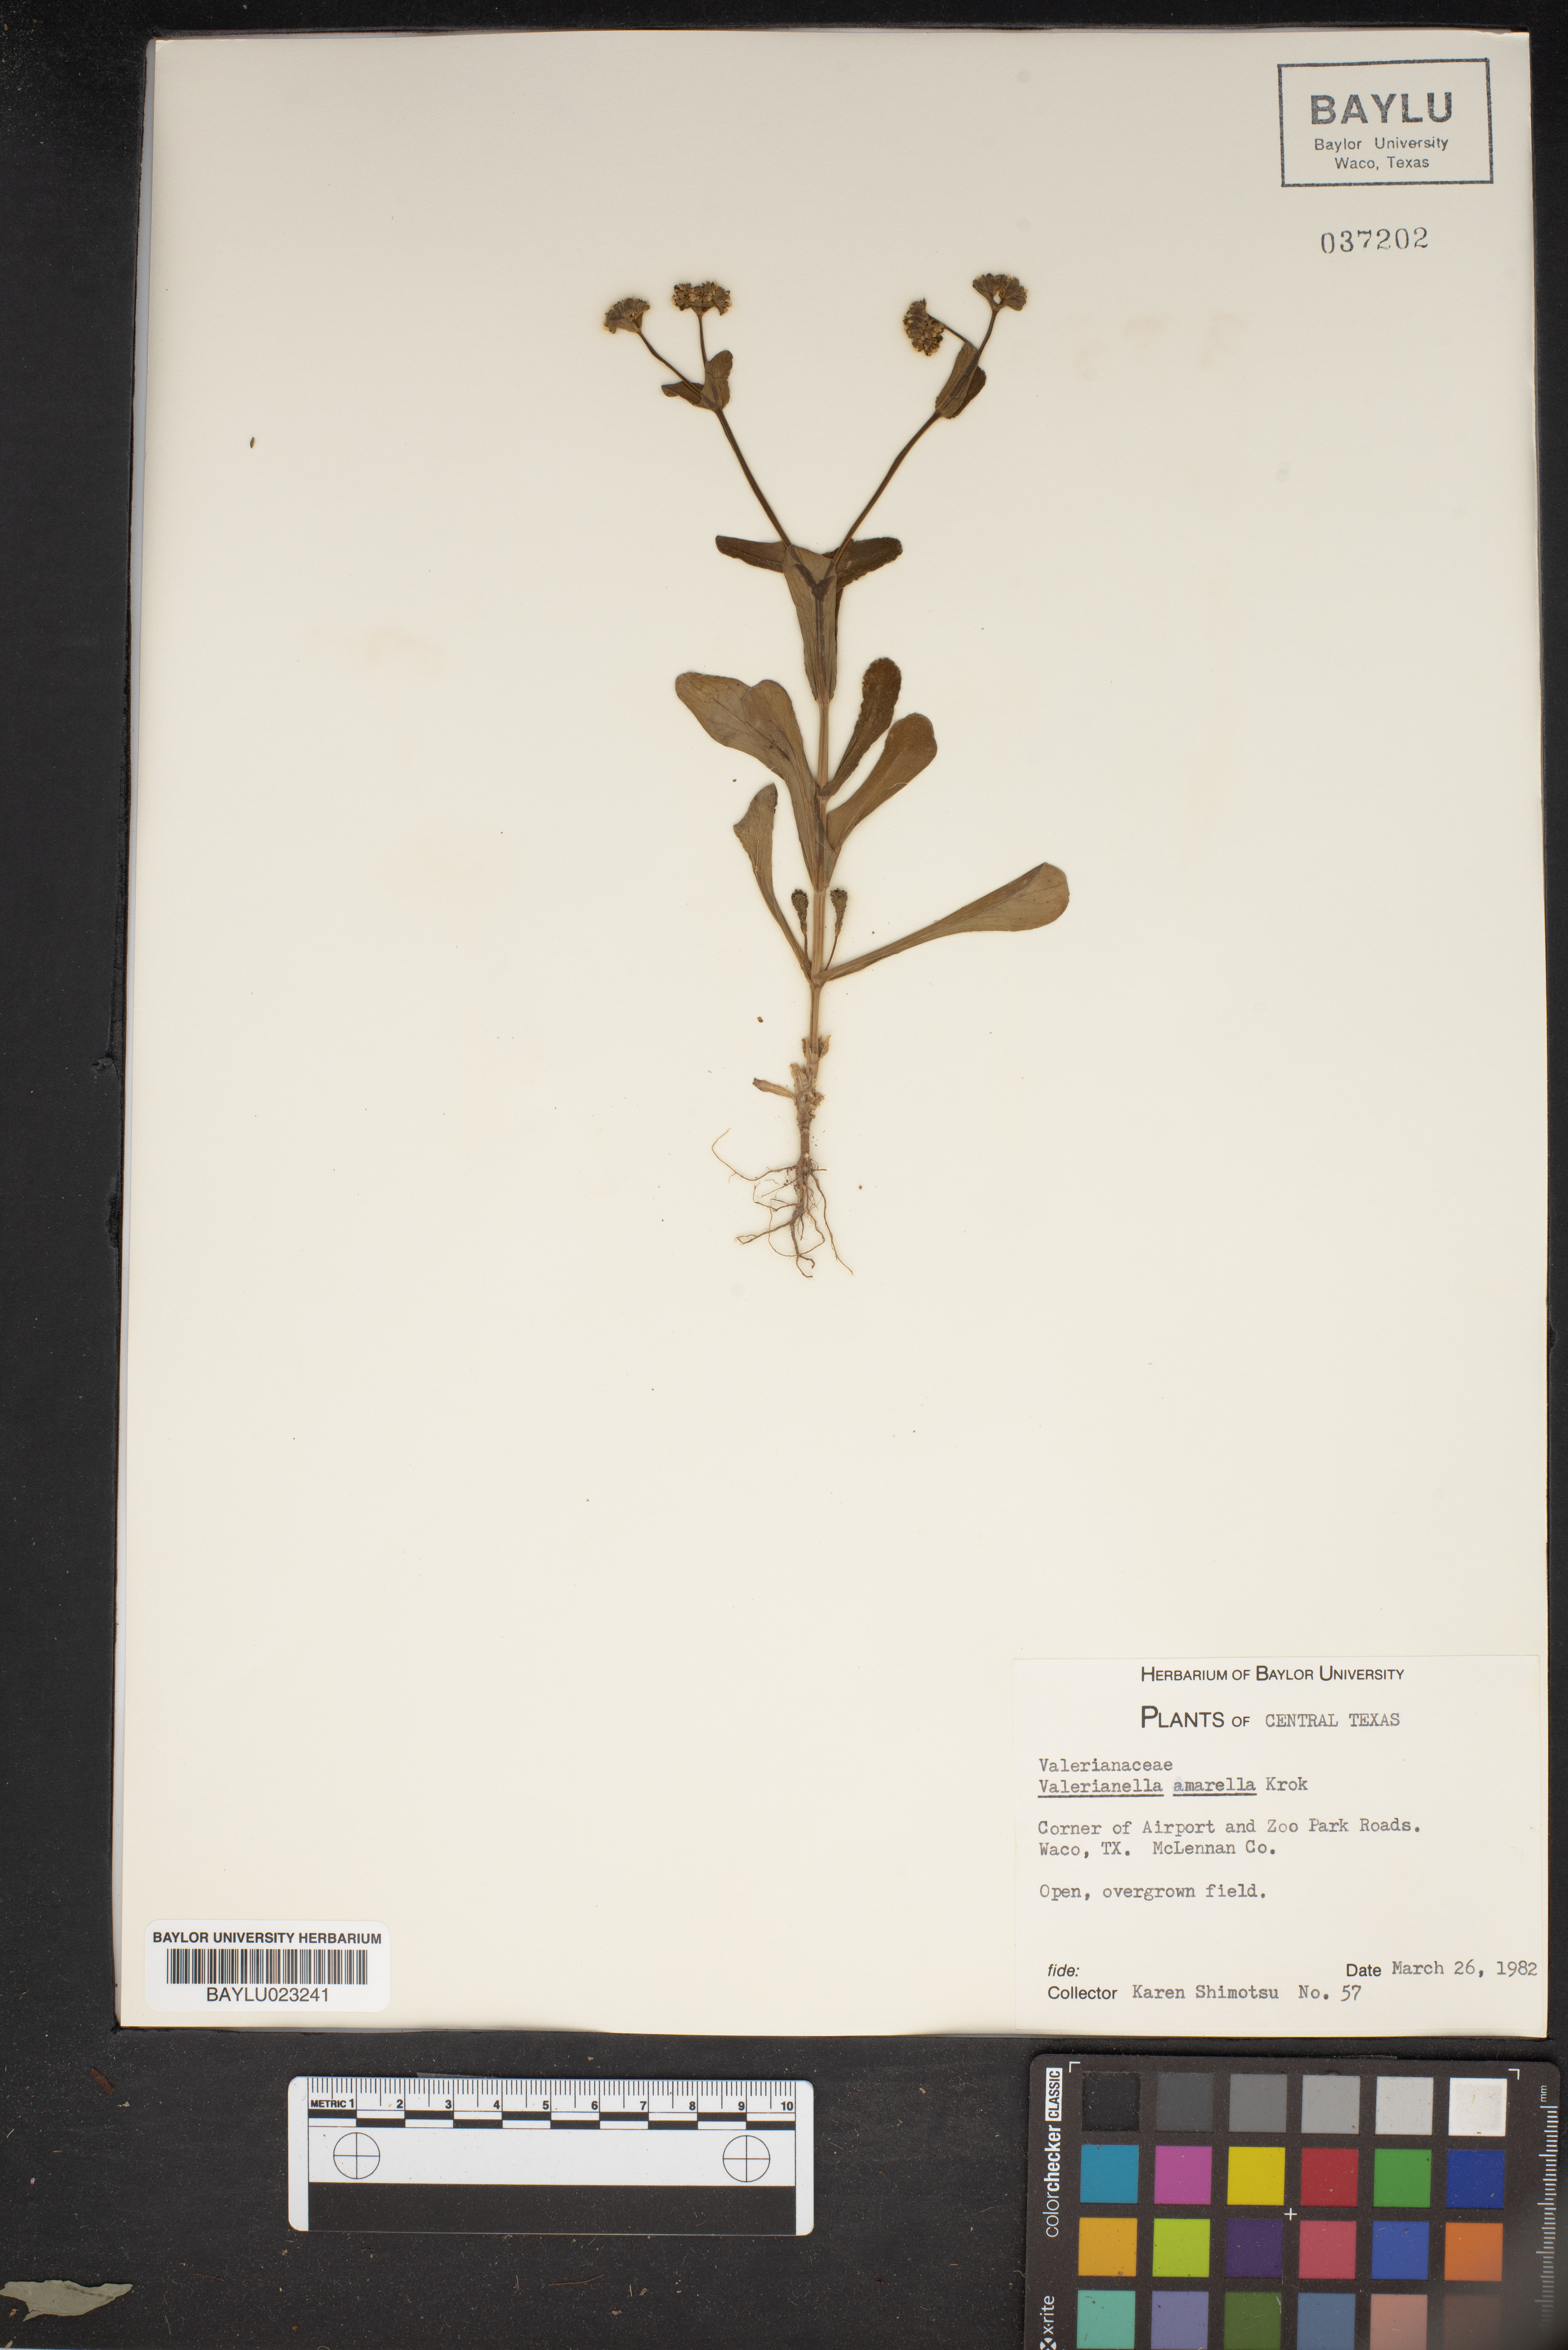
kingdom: Plantae
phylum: Tracheophyta
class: Magnoliopsida
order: Dipsacales
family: Caprifoliaceae
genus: Valerianella
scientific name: Valerianella amarella
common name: Hariy cornsalad
